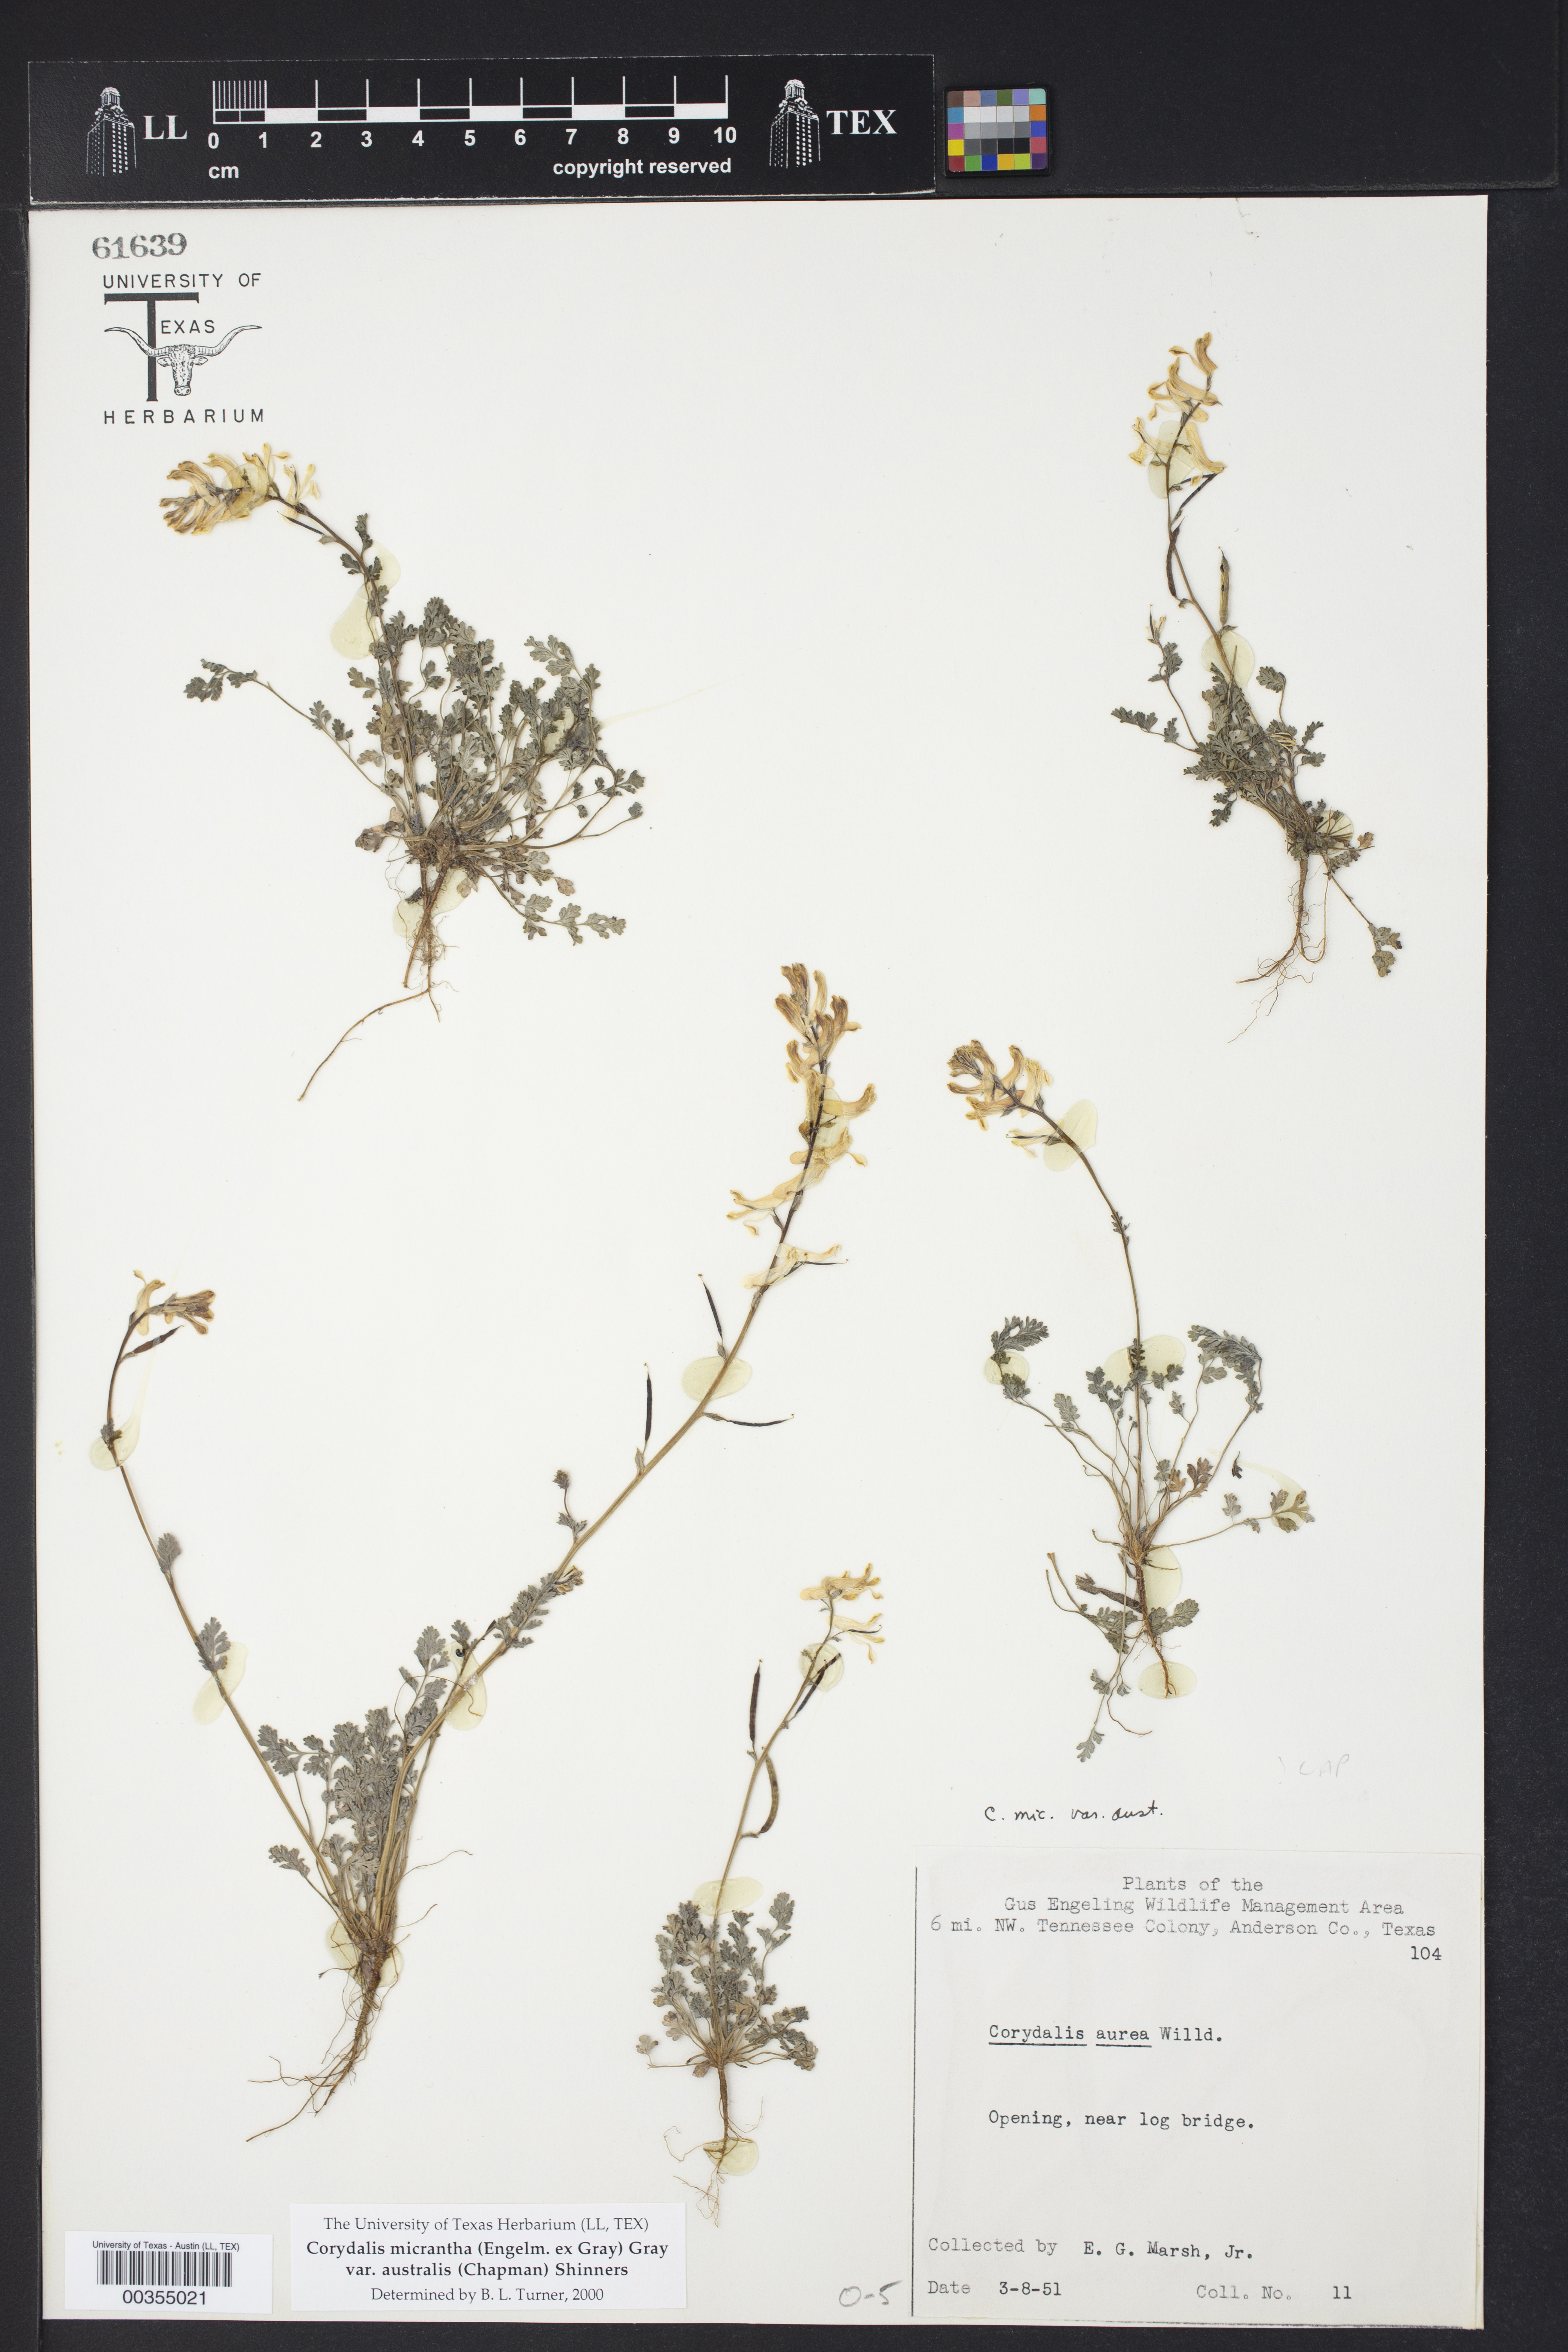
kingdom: Plantae
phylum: Tracheophyta
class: Magnoliopsida
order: Ranunculales
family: Papaveraceae
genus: Corydalis
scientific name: Corydalis micrantha
